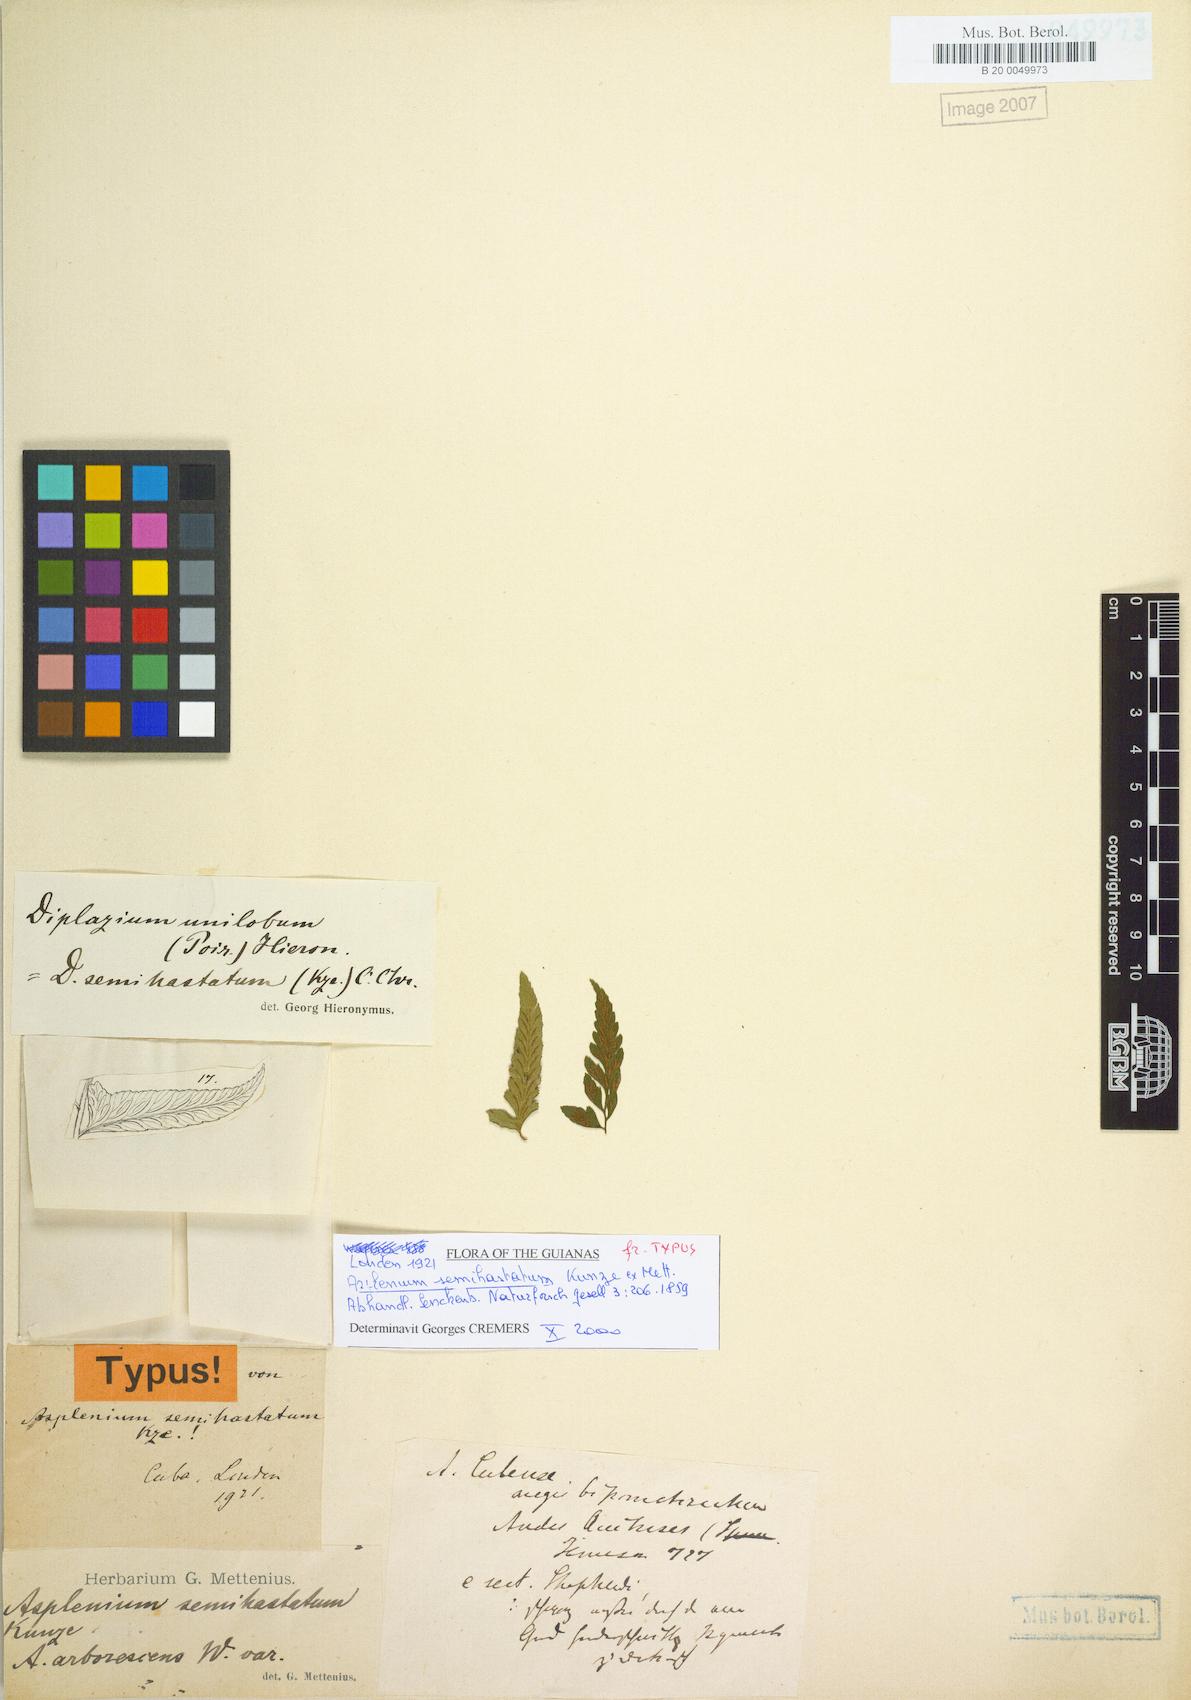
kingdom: Plantae
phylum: Tracheophyta
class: Polypodiopsida
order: Polypodiales
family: Athyriaceae
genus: Diplazium
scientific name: Diplazium unilobum
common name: Singlelobe twinsorus fern
